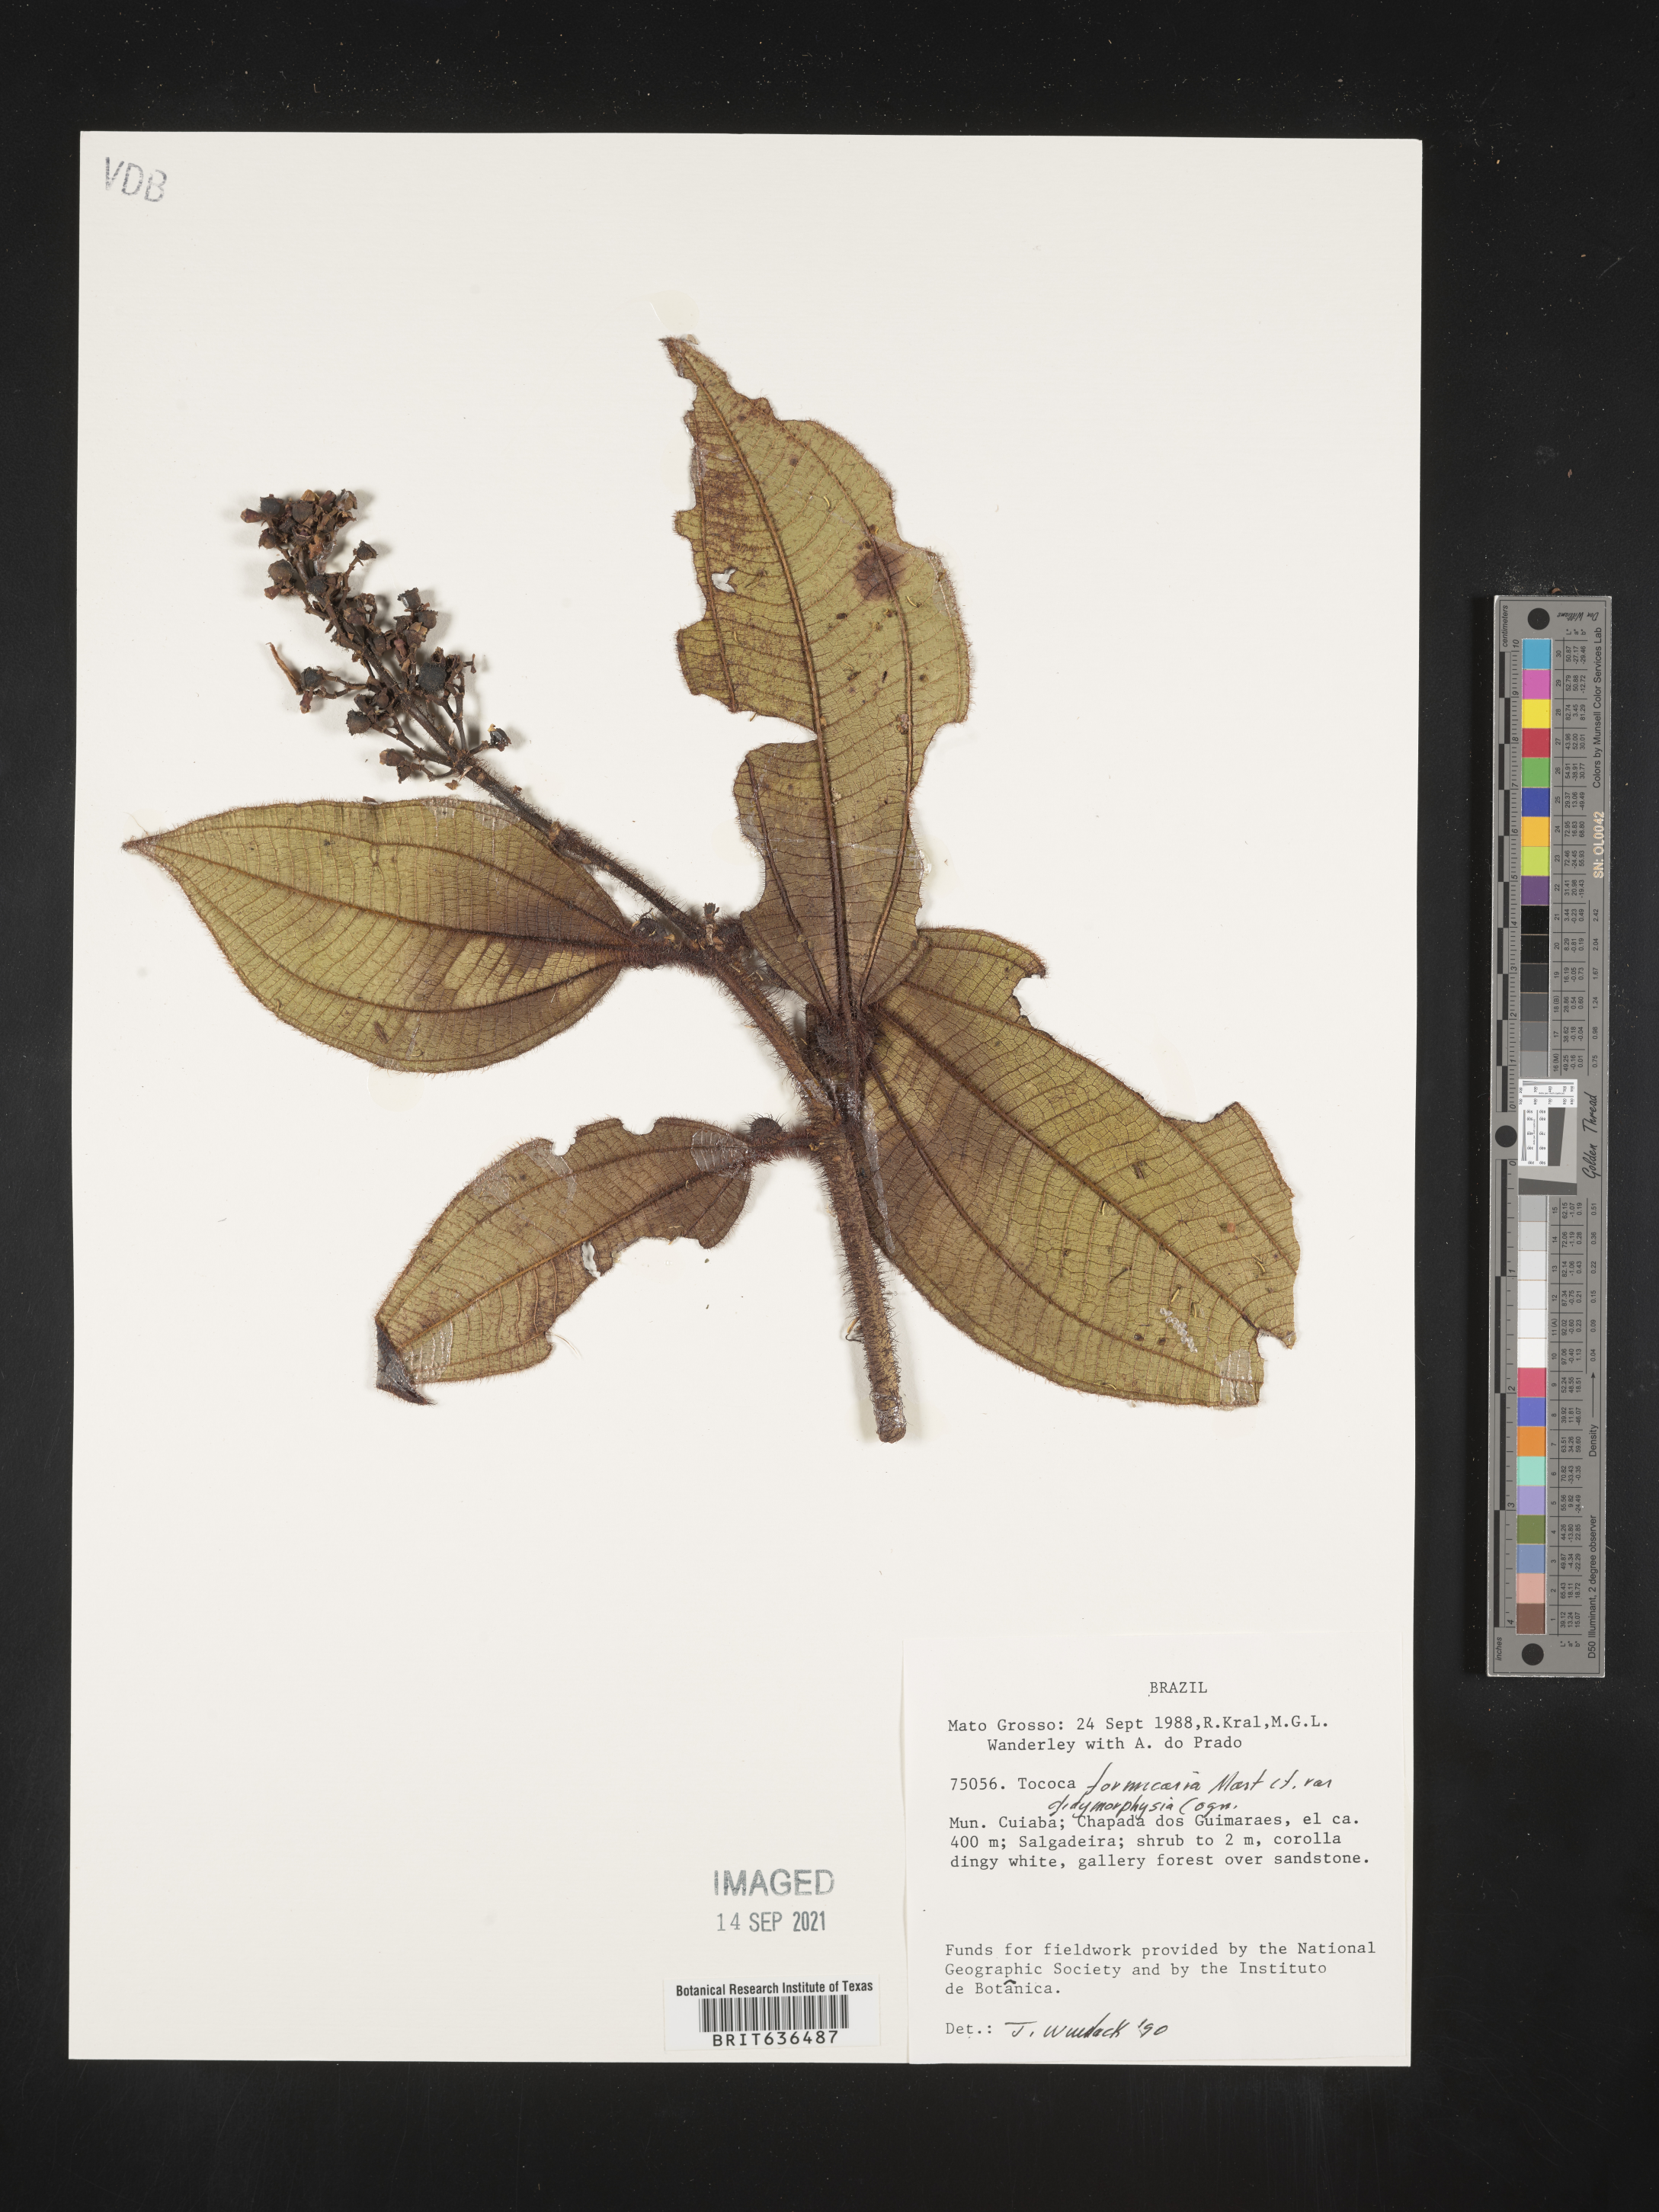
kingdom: Plantae
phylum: Tracheophyta
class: Magnoliopsida
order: Myrtales
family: Melastomataceae
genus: Tibouchina
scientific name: Tibouchina
